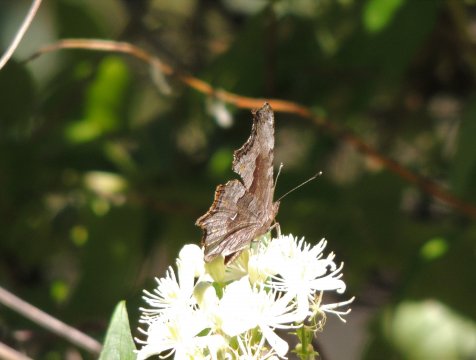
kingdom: Animalia
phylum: Arthropoda
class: Insecta
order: Lepidoptera
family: Nymphalidae
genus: Polygonia
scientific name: Polygonia gracilis
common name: Hoary Comma
